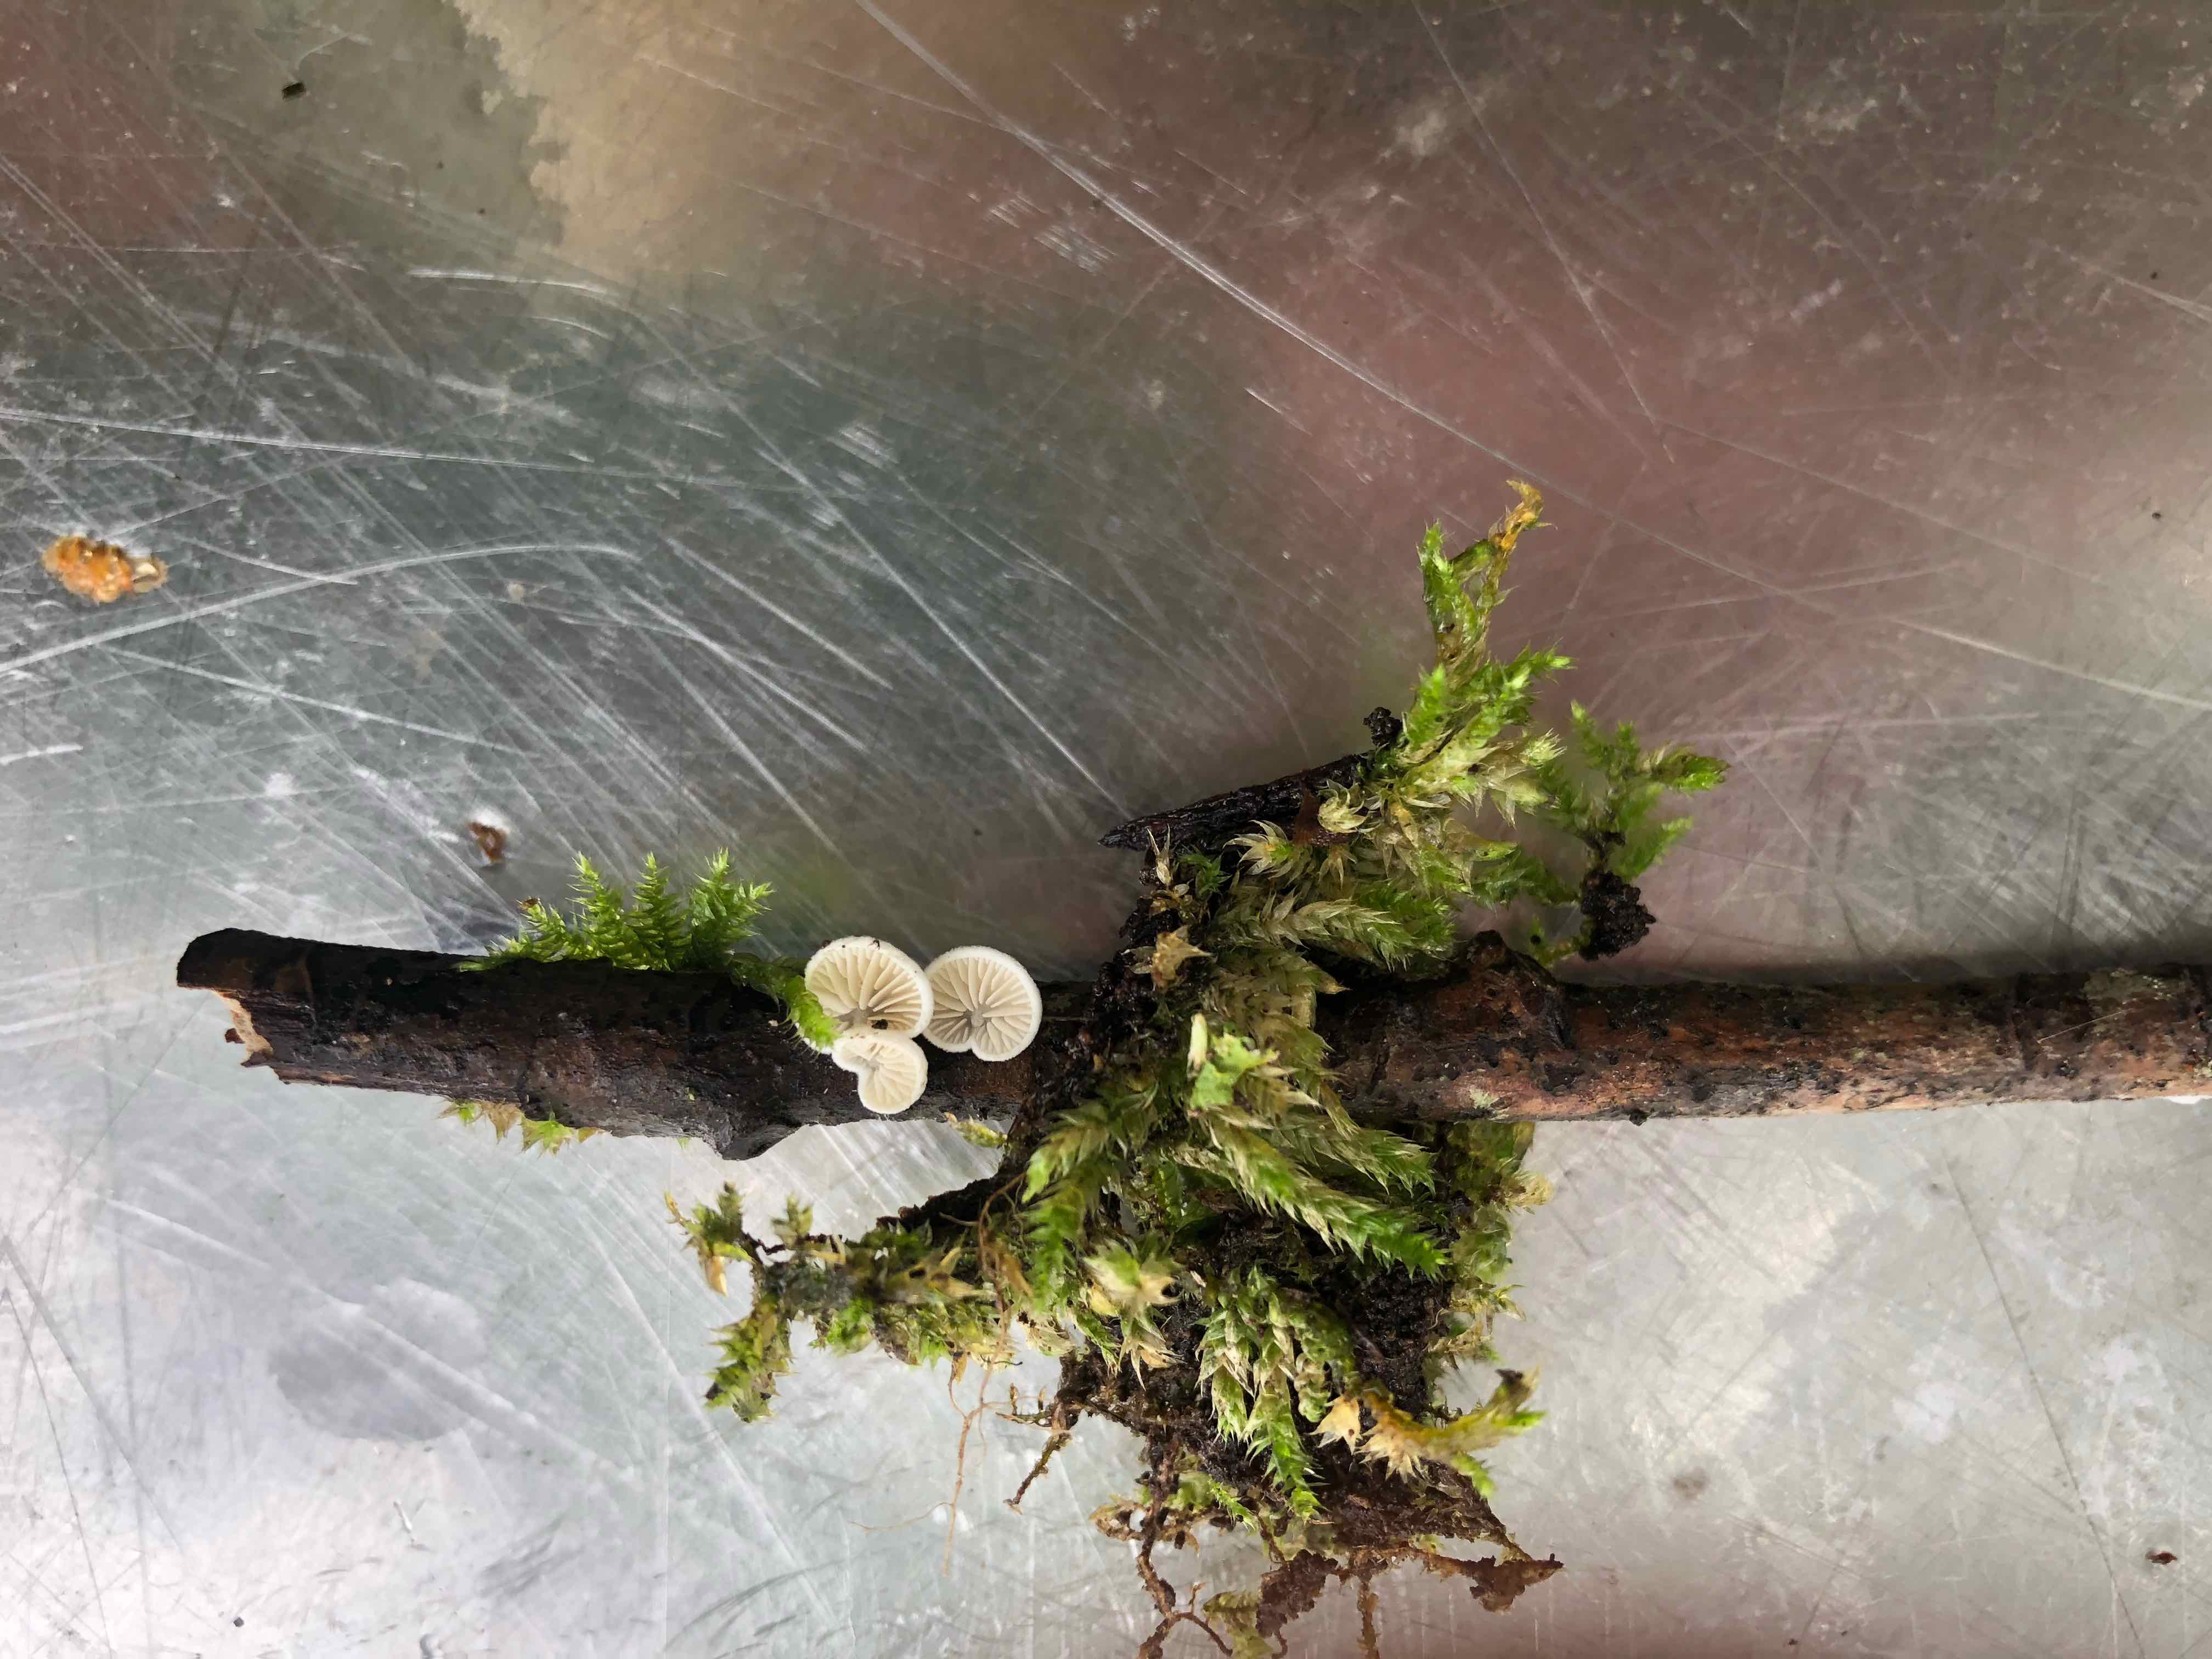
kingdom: Fungi
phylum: Basidiomycota
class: Agaricomycetes
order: Agaricales
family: Crepidotaceae
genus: Crepidotus
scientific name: Crepidotus
